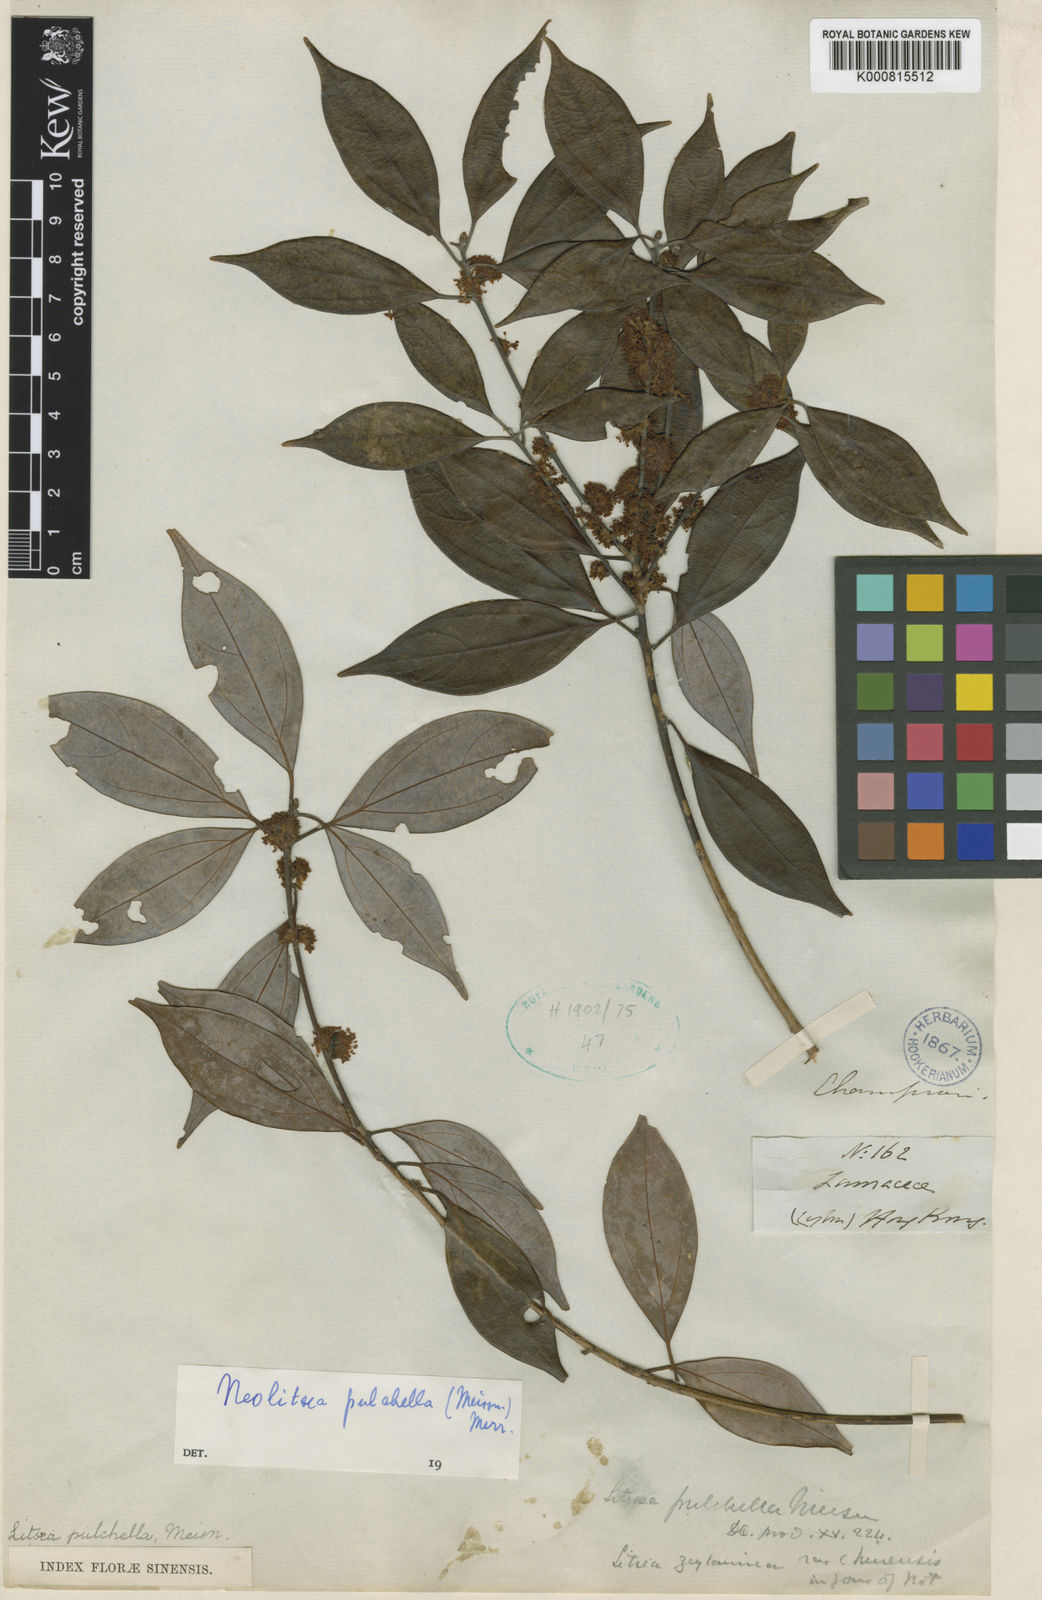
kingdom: Plantae
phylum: Tracheophyta
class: Magnoliopsida
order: Laurales
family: Lauraceae
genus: Neolitsea
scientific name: Neolitsea pulchella
